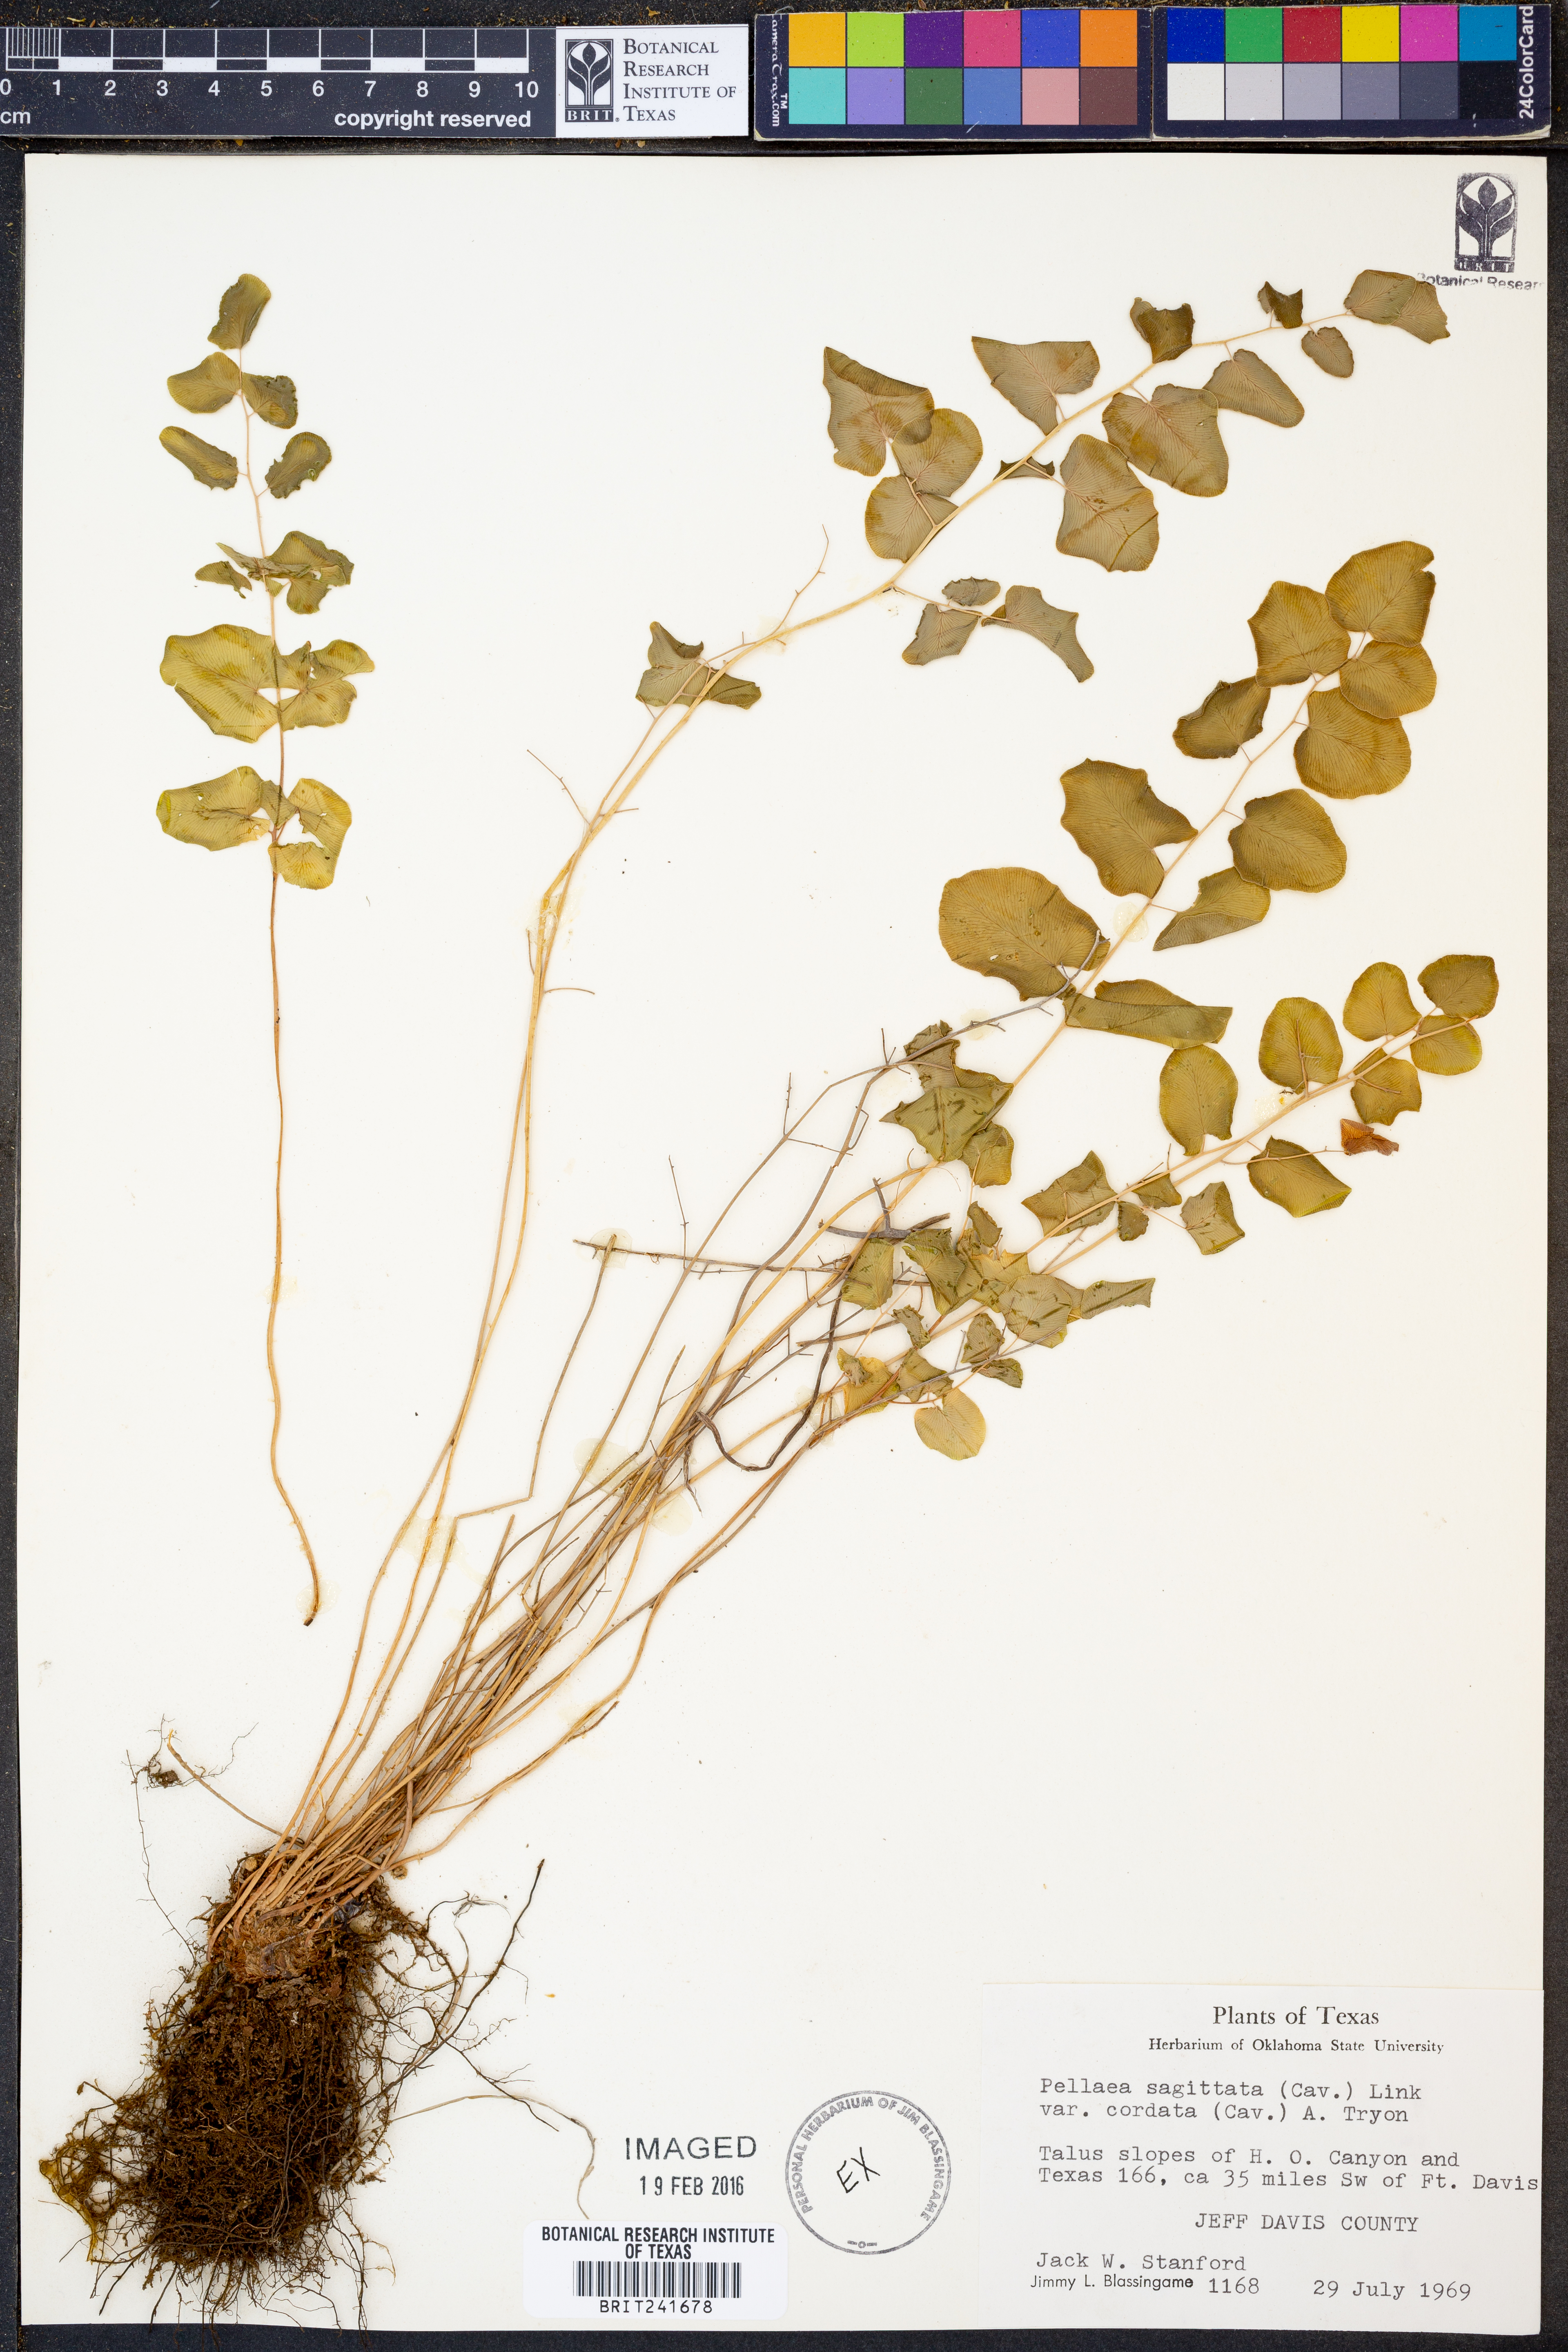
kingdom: Plantae
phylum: Tracheophyta
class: Polypodiopsida
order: Polypodiales
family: Pteridaceae
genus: Pellaea
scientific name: Pellaea cordifolia
